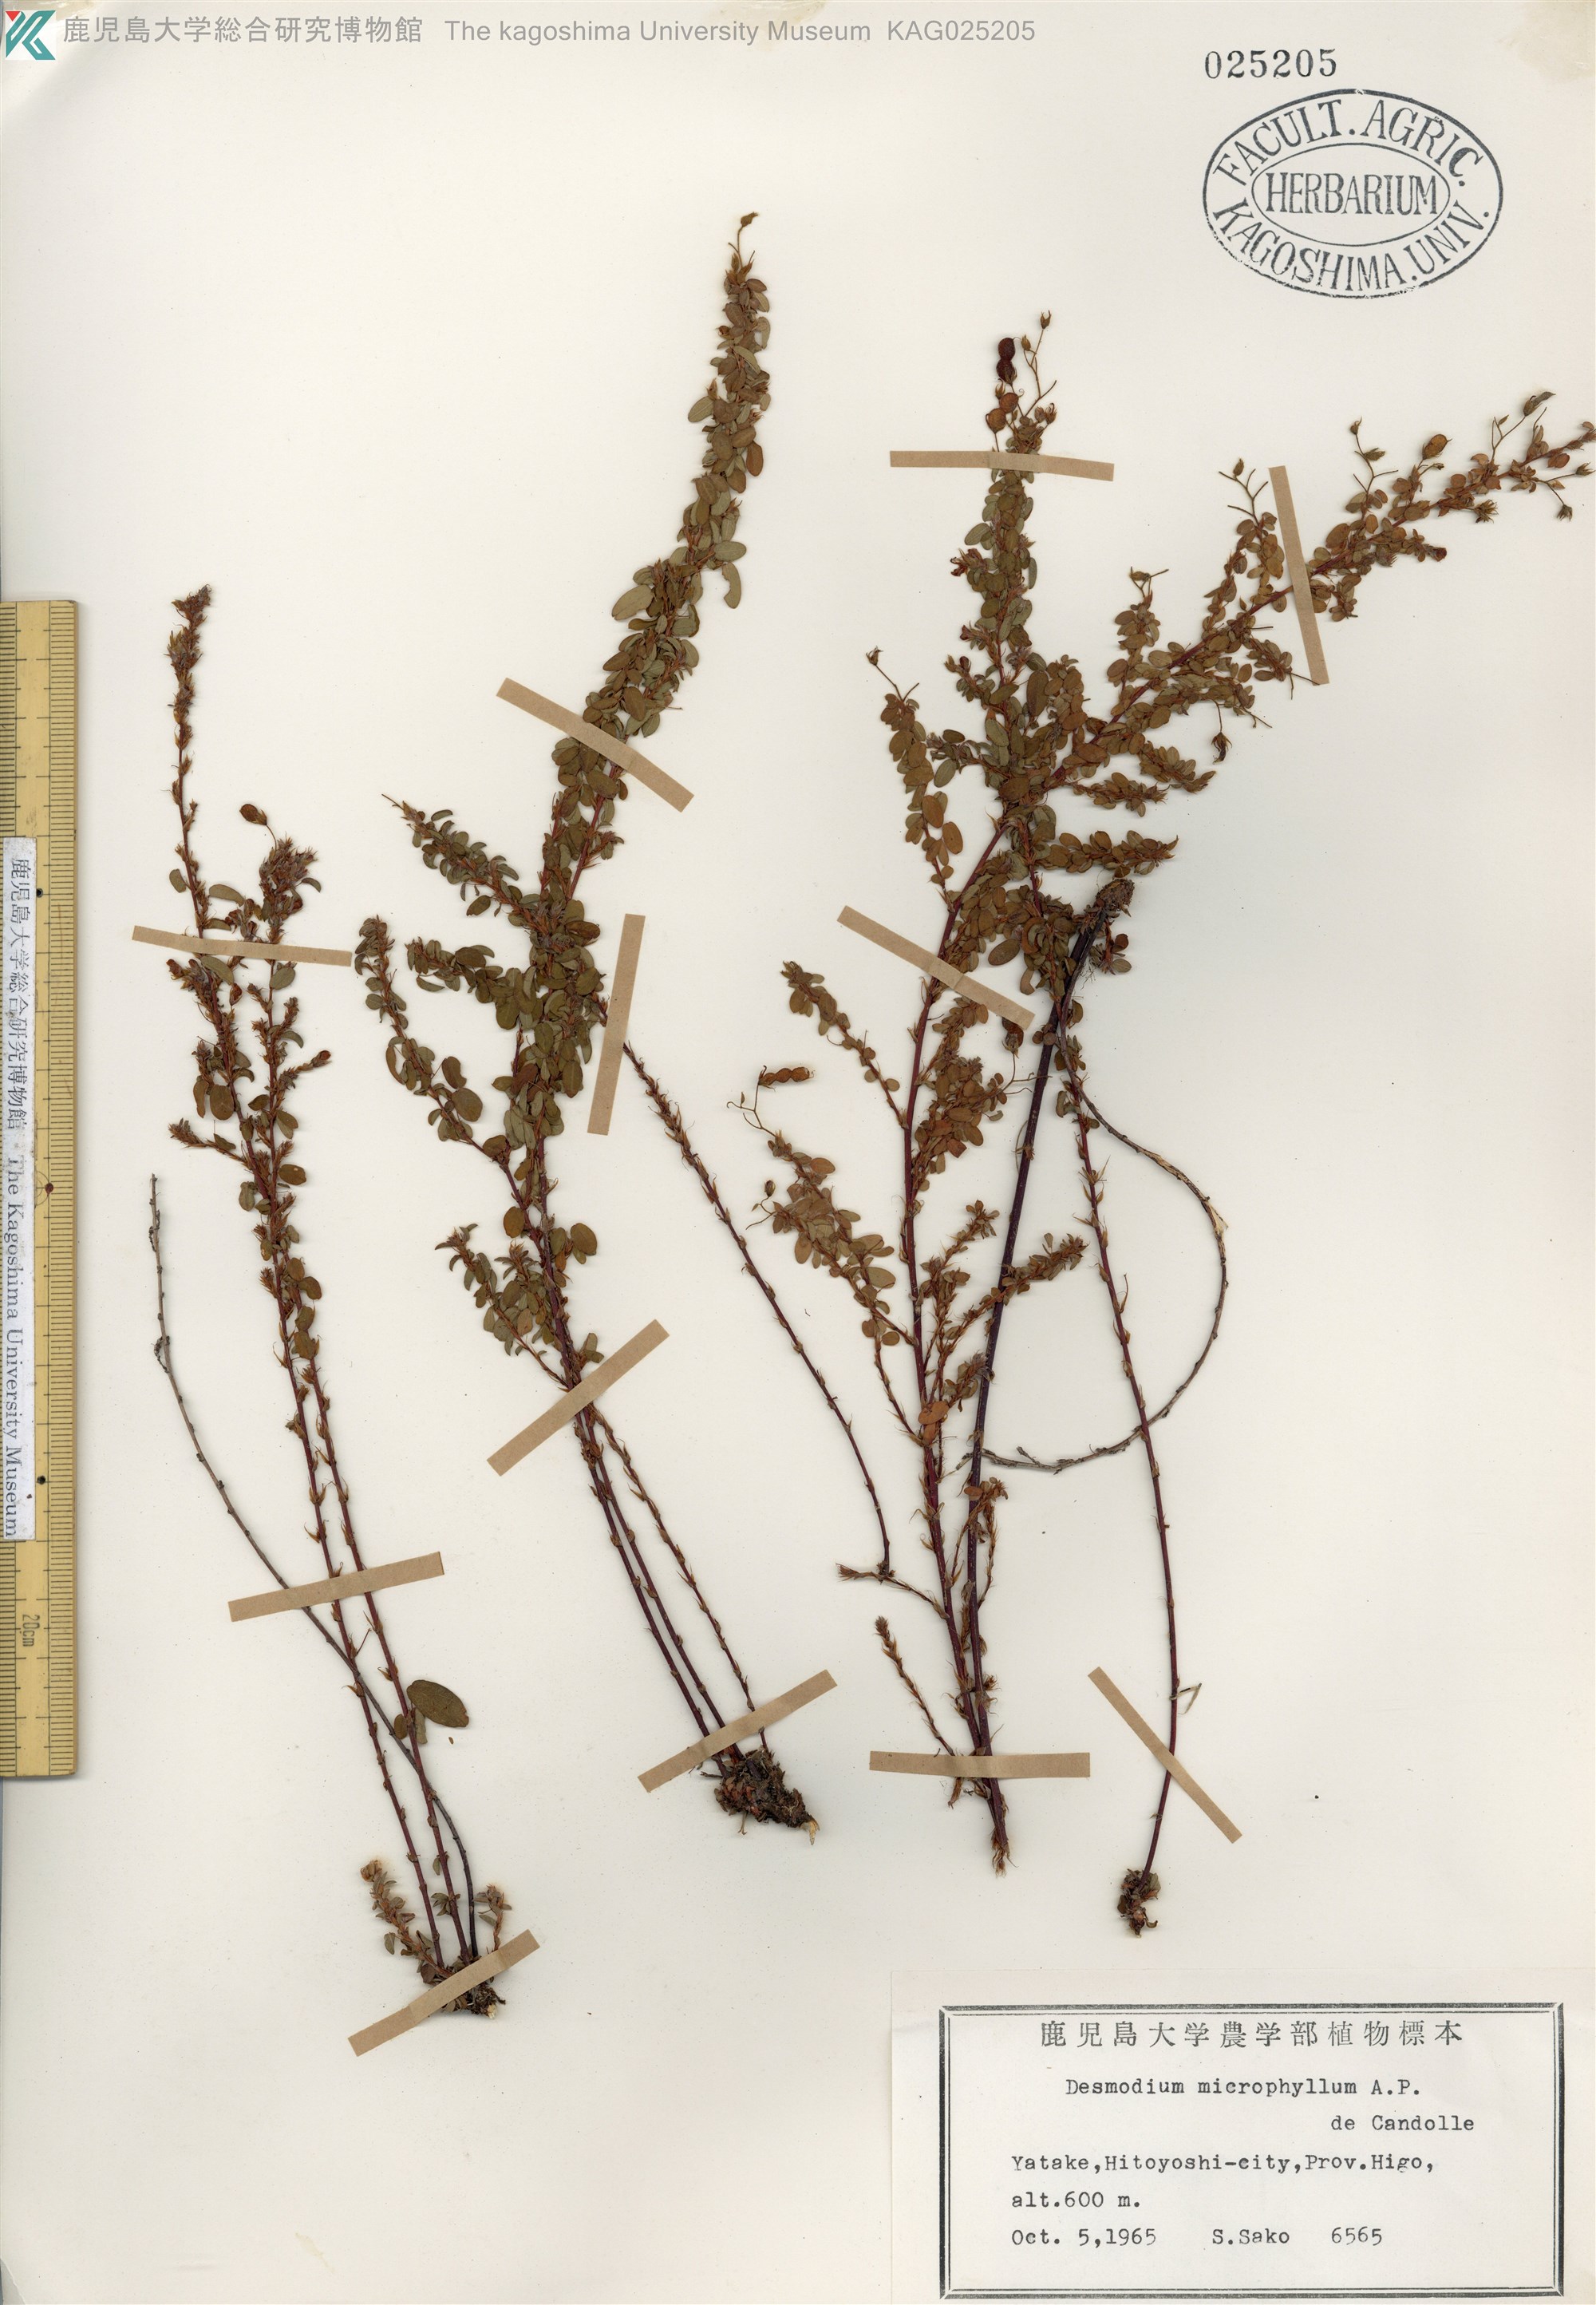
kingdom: Plantae
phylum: Tracheophyta
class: Magnoliopsida
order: Fabales
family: Fabaceae
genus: Leptodesmia
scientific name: Leptodesmia microphylla
